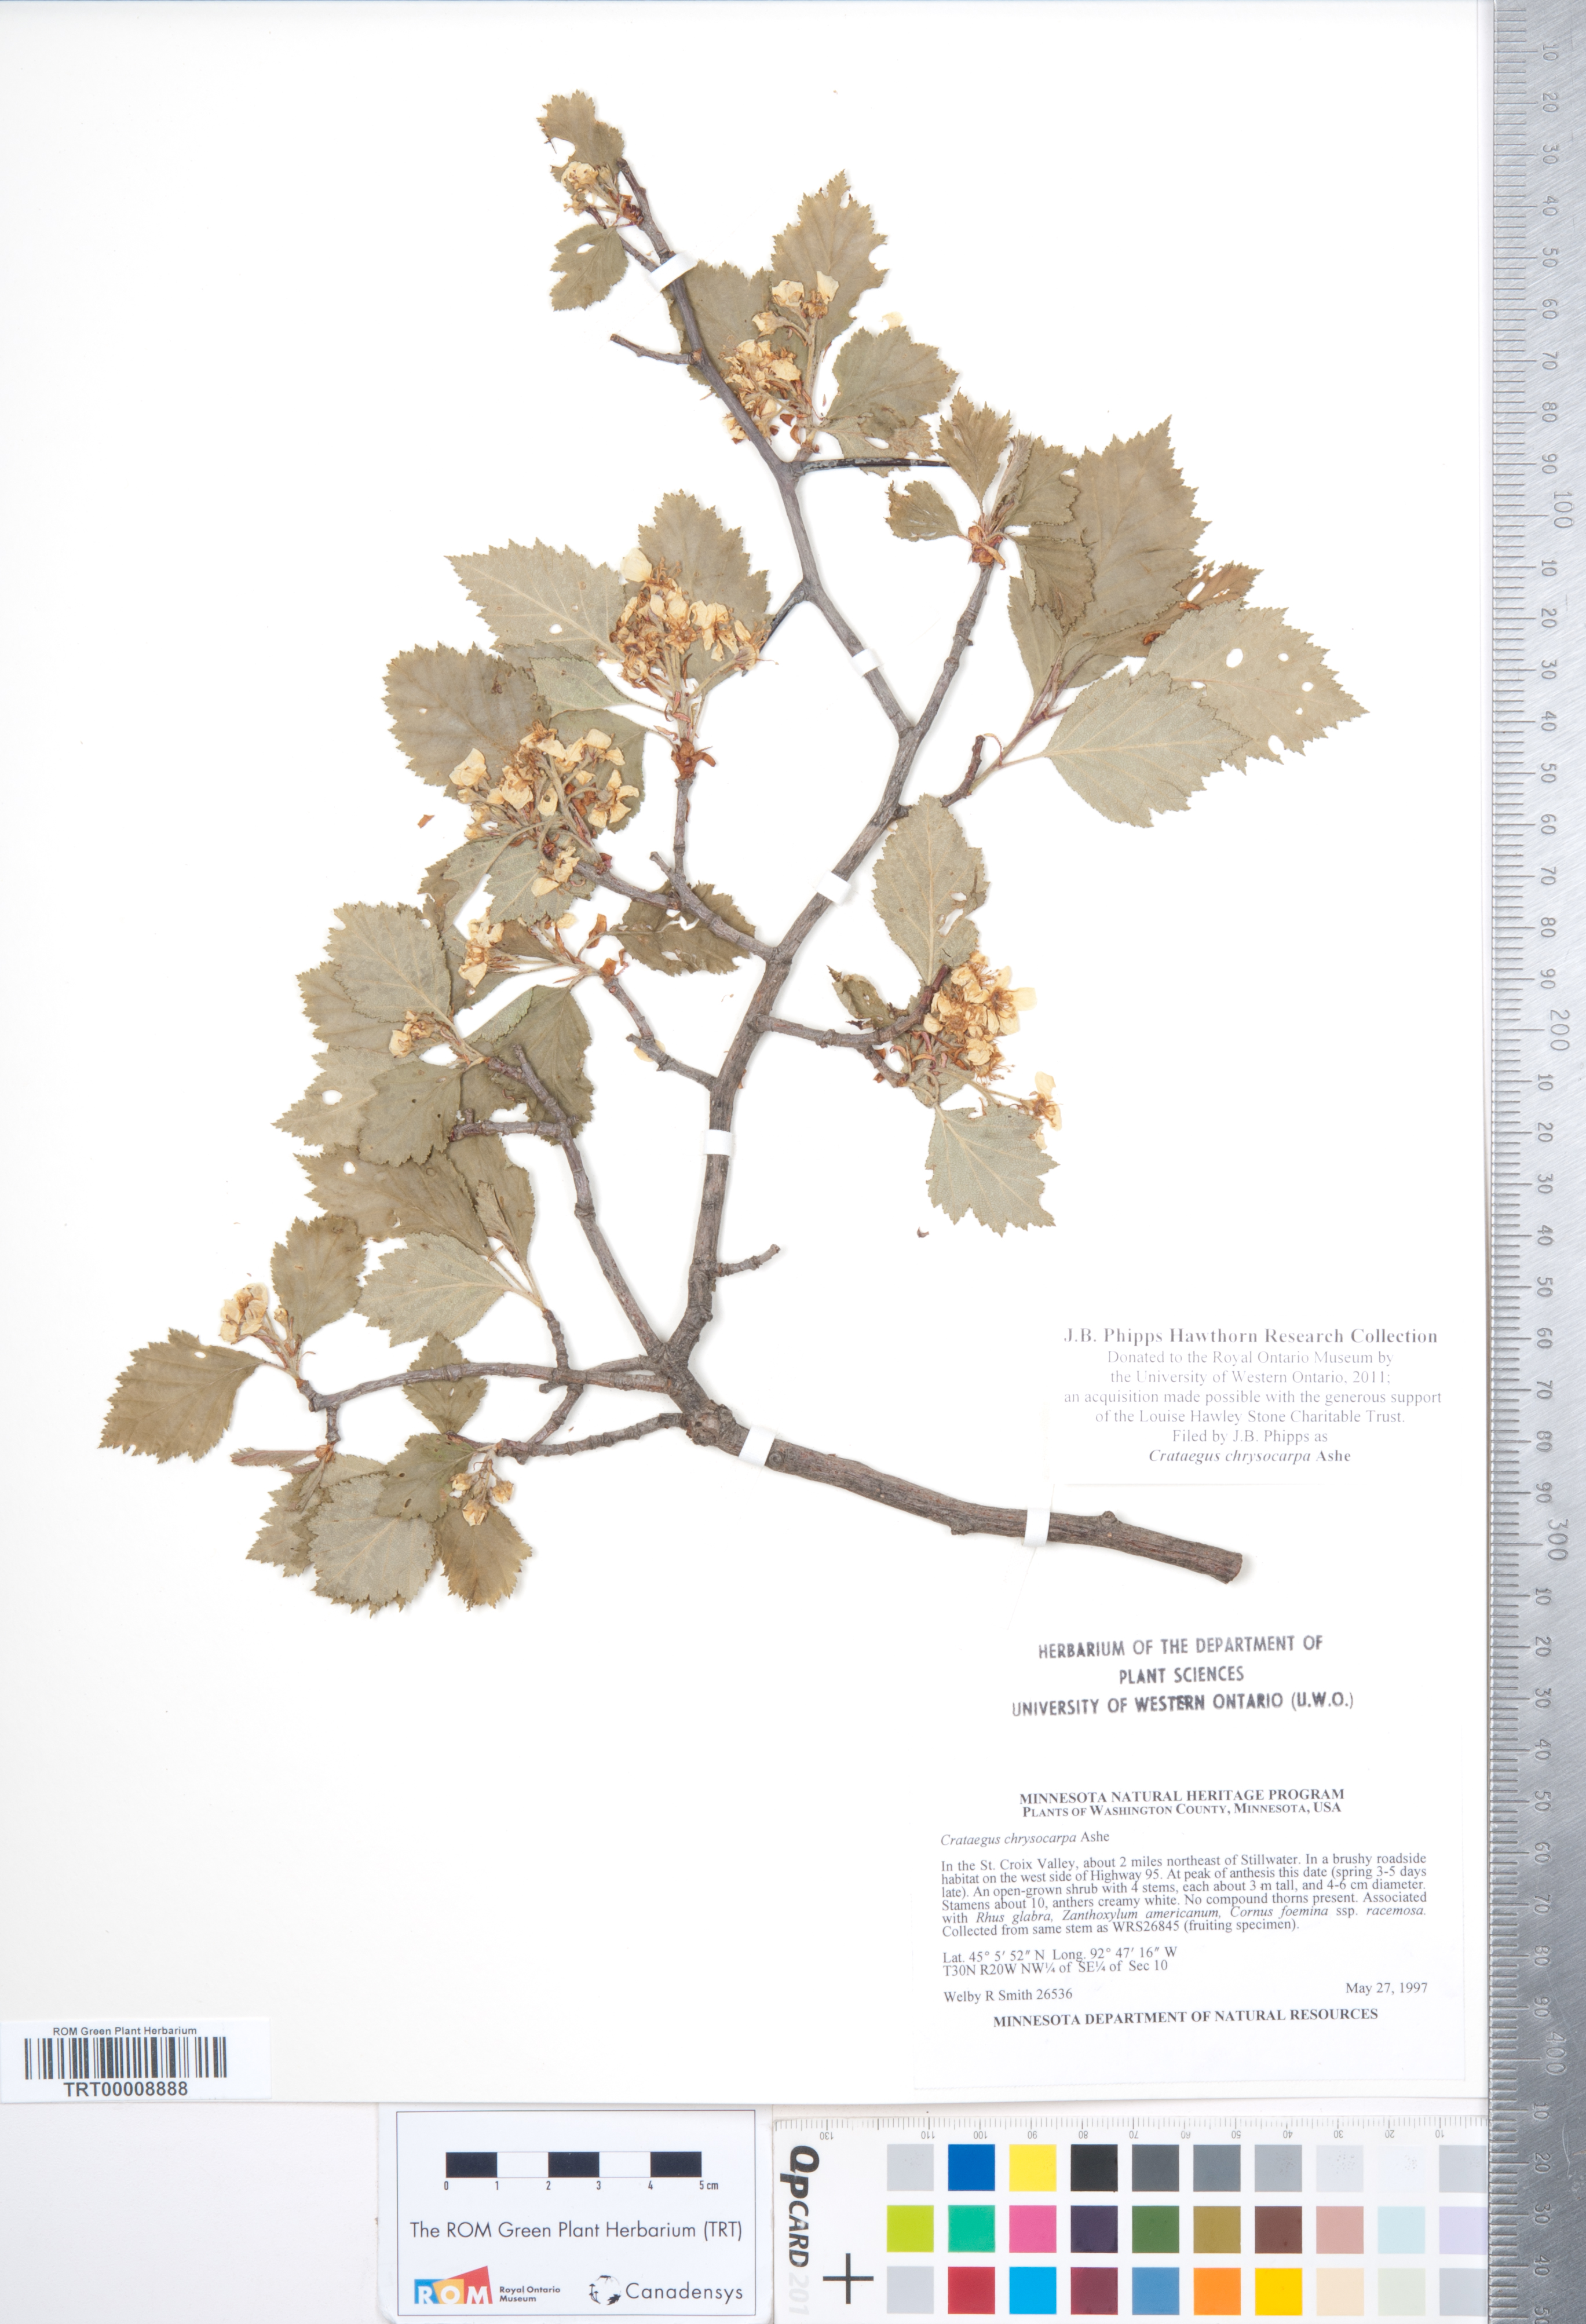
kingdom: Plantae
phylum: Tracheophyta
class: Magnoliopsida
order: Rosales
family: Rosaceae
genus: Crataegus
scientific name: Crataegus chrysocarpa
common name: Fire-berry hawthorn
